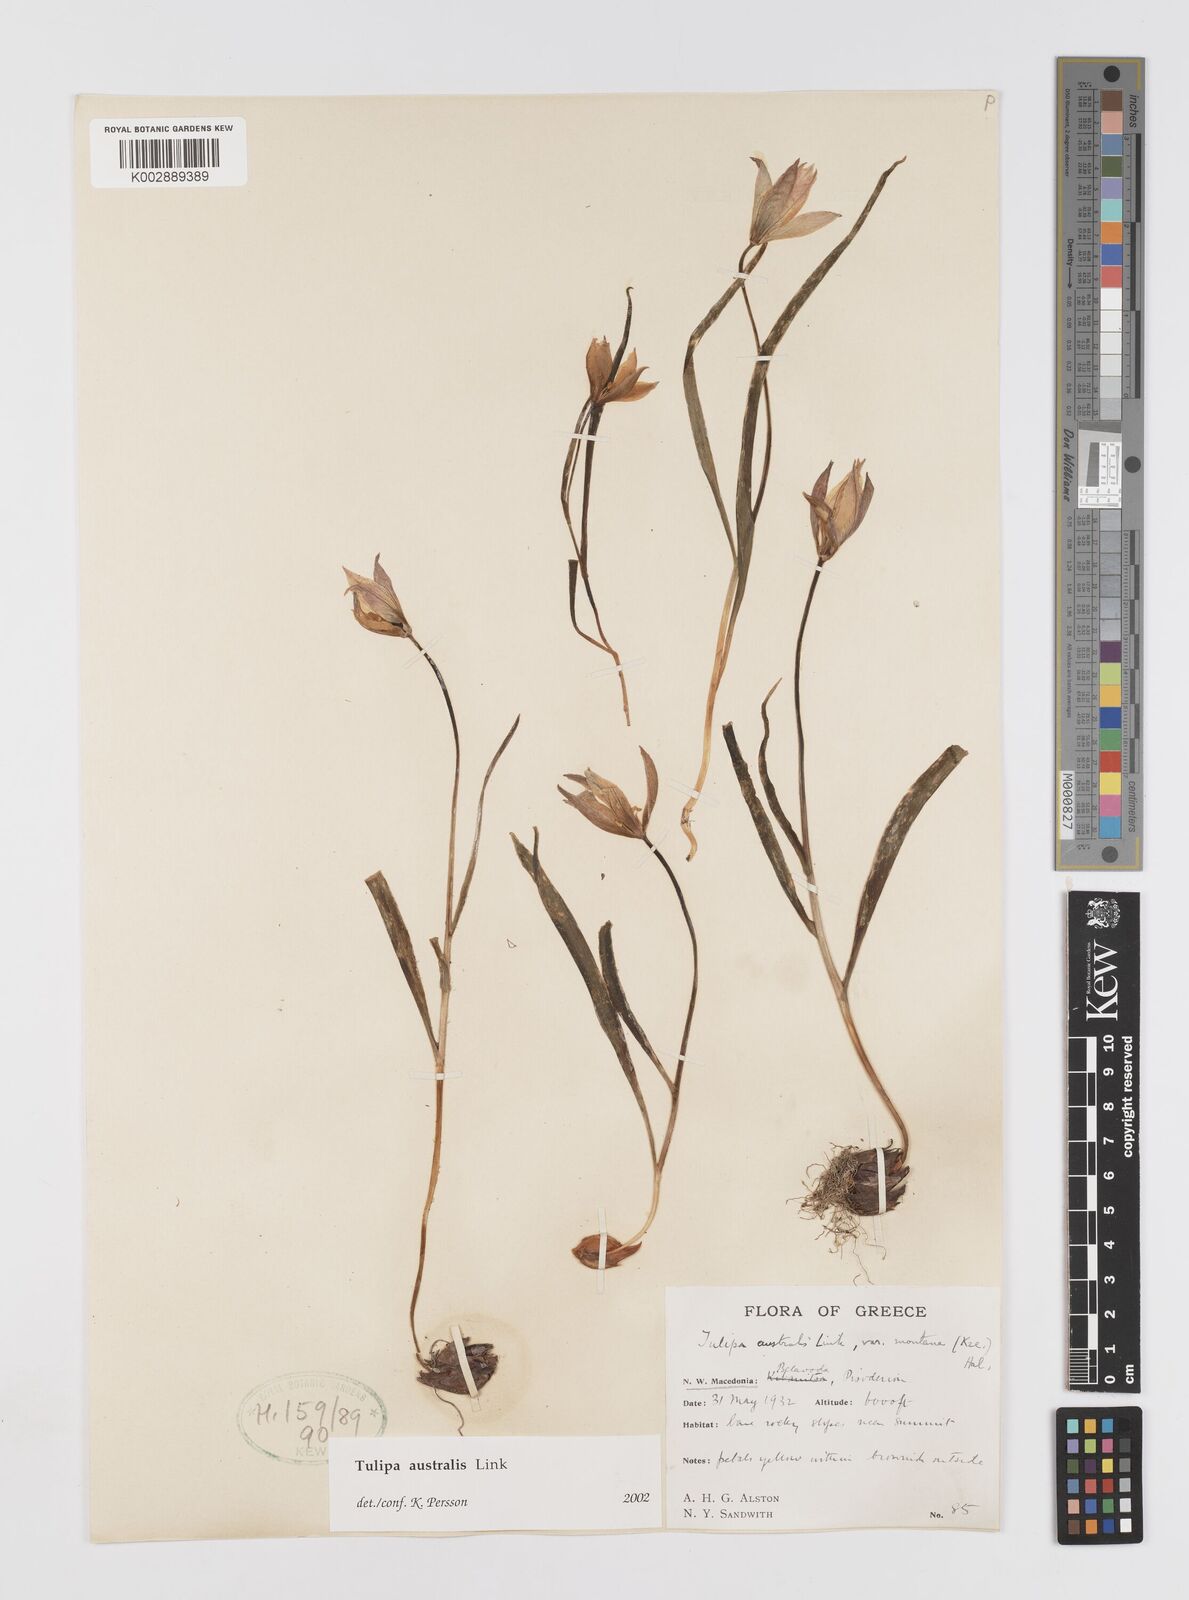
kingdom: Plantae
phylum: Tracheophyta
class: Liliopsida
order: Liliales
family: Liliaceae
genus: Tulipa
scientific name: Tulipa sylvestris
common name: Wild tulip
